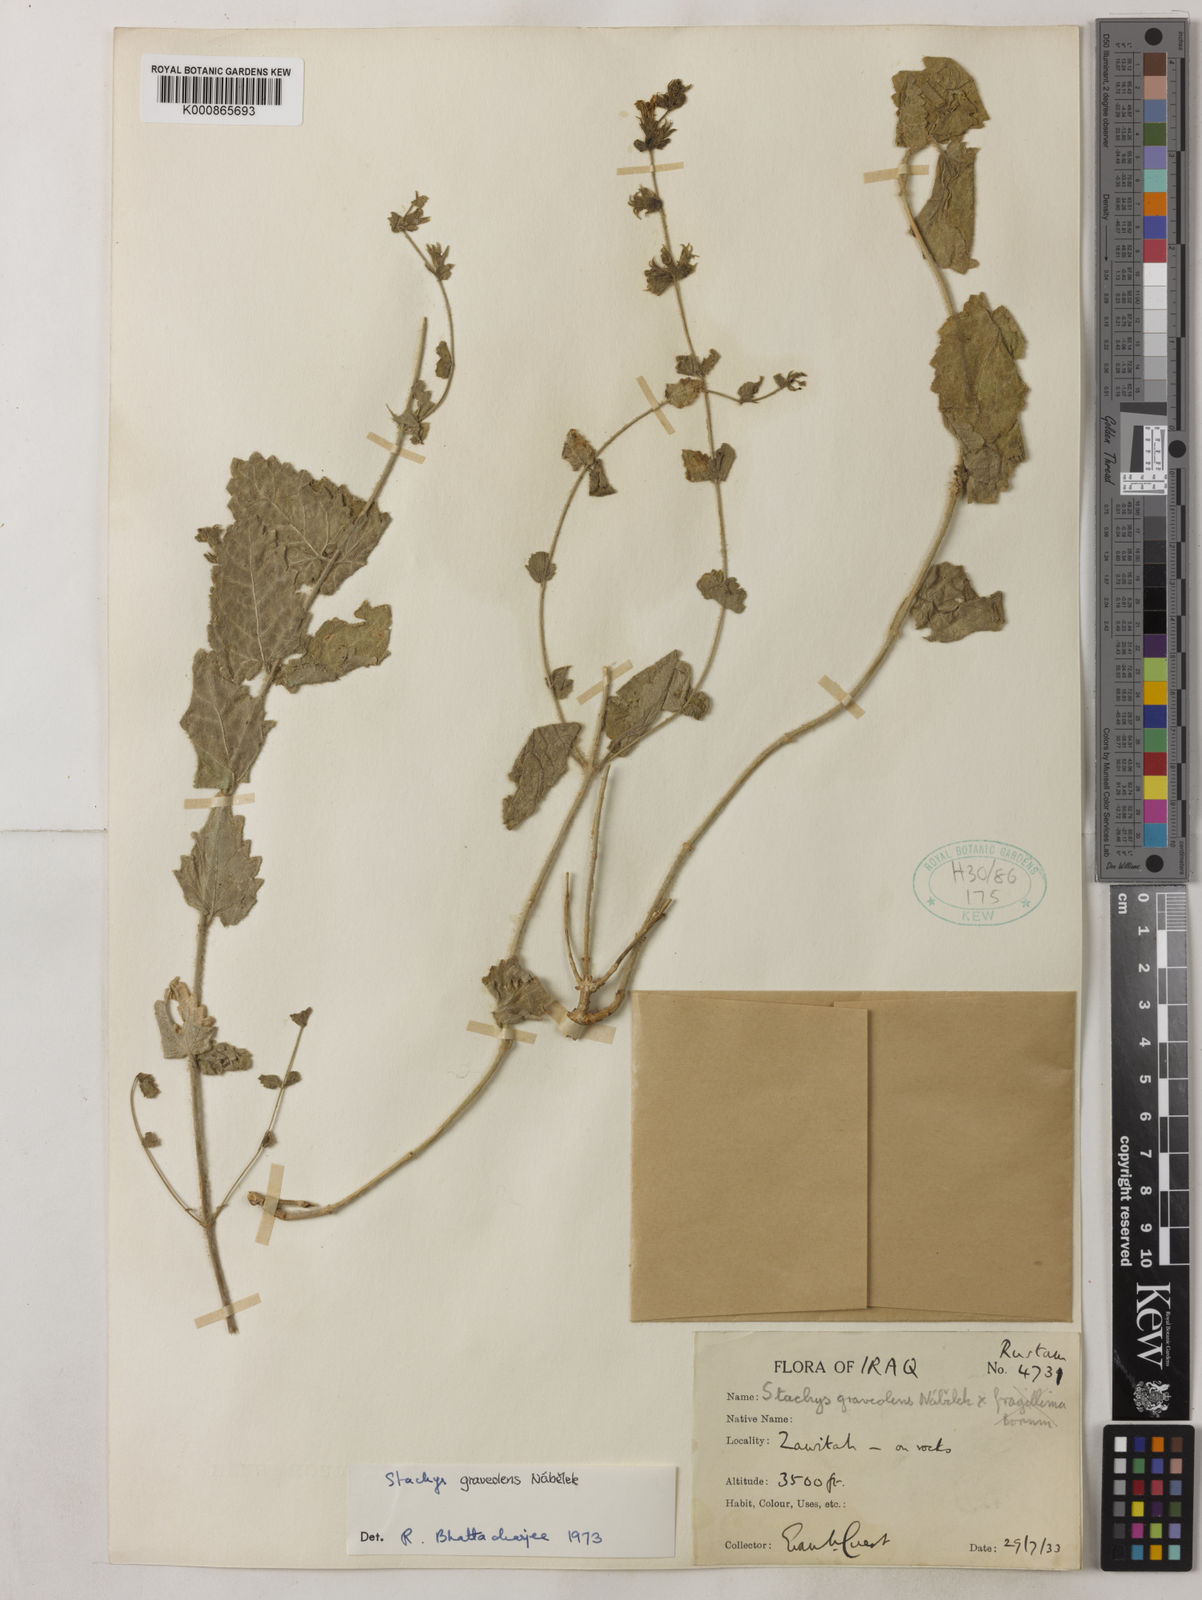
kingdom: Plantae
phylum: Tracheophyta
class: Magnoliopsida
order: Lamiales
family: Lamiaceae
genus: Stachys
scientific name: Stachys
